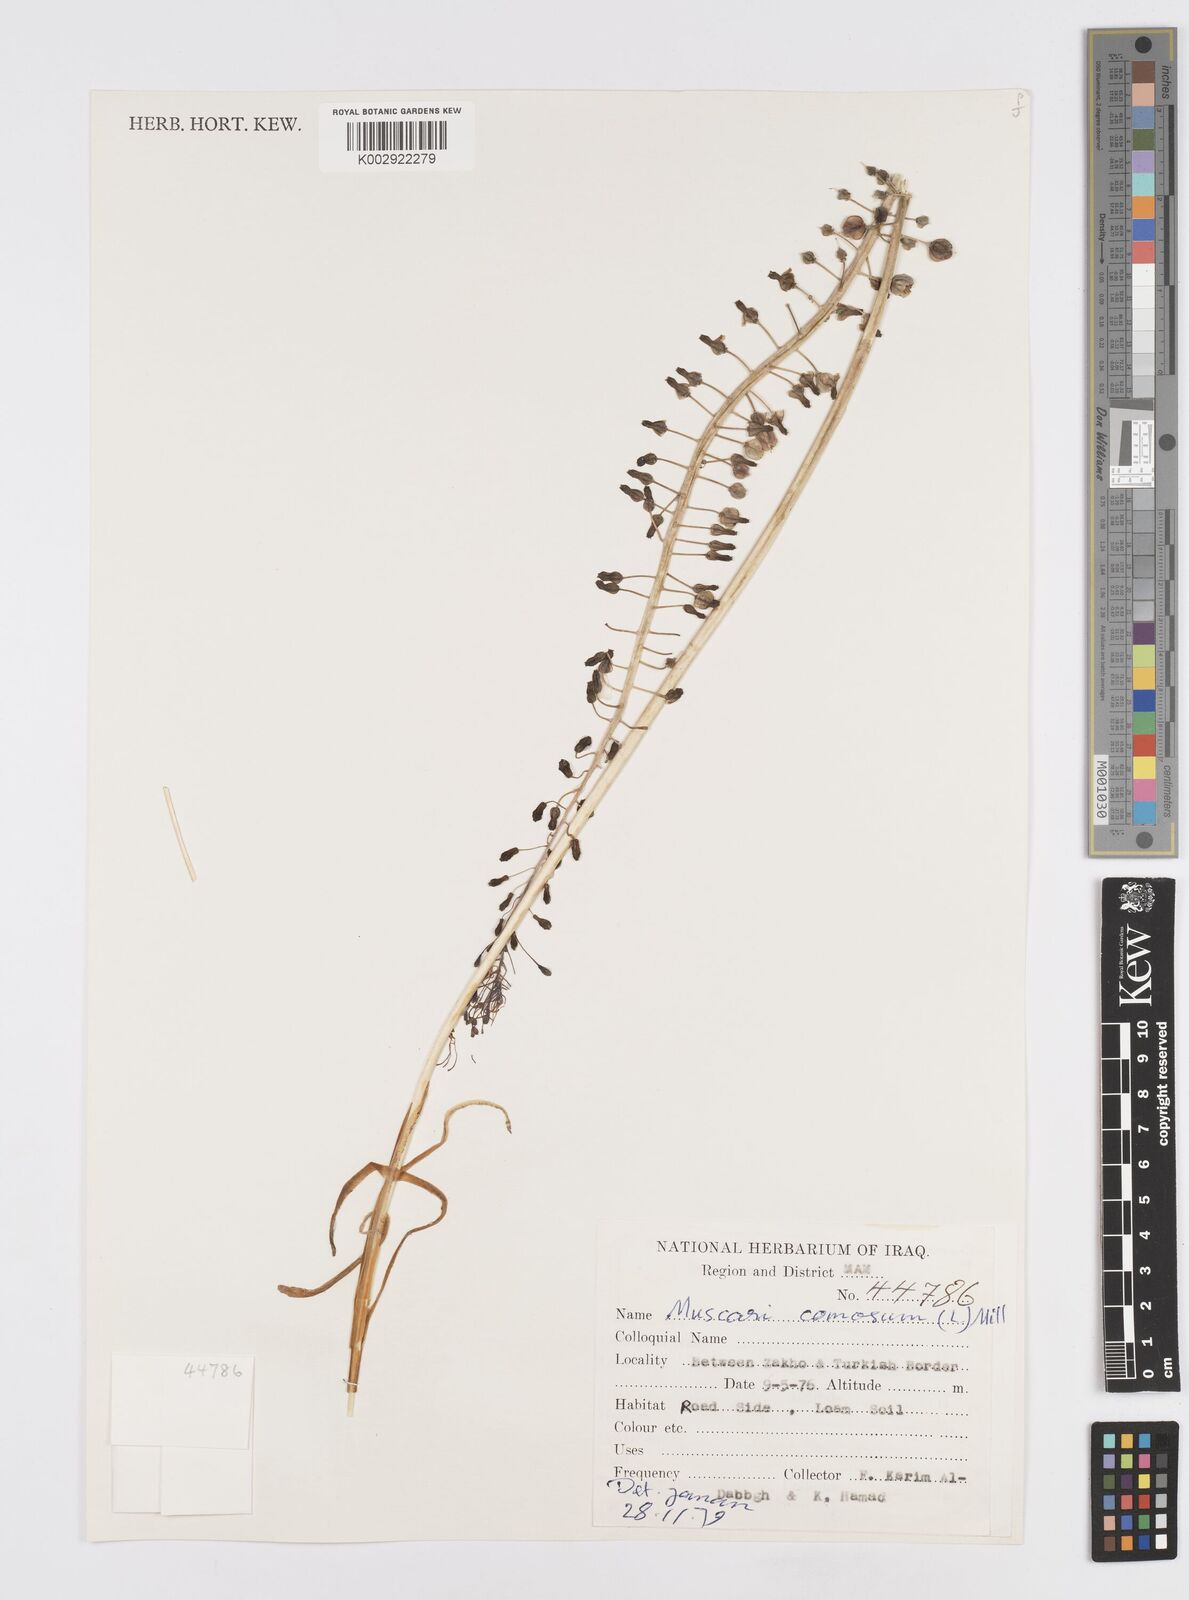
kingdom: Plantae
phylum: Tracheophyta
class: Liliopsida
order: Asparagales
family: Asparagaceae
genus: Muscari
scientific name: Muscari comosum
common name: Tassel hyacinth
